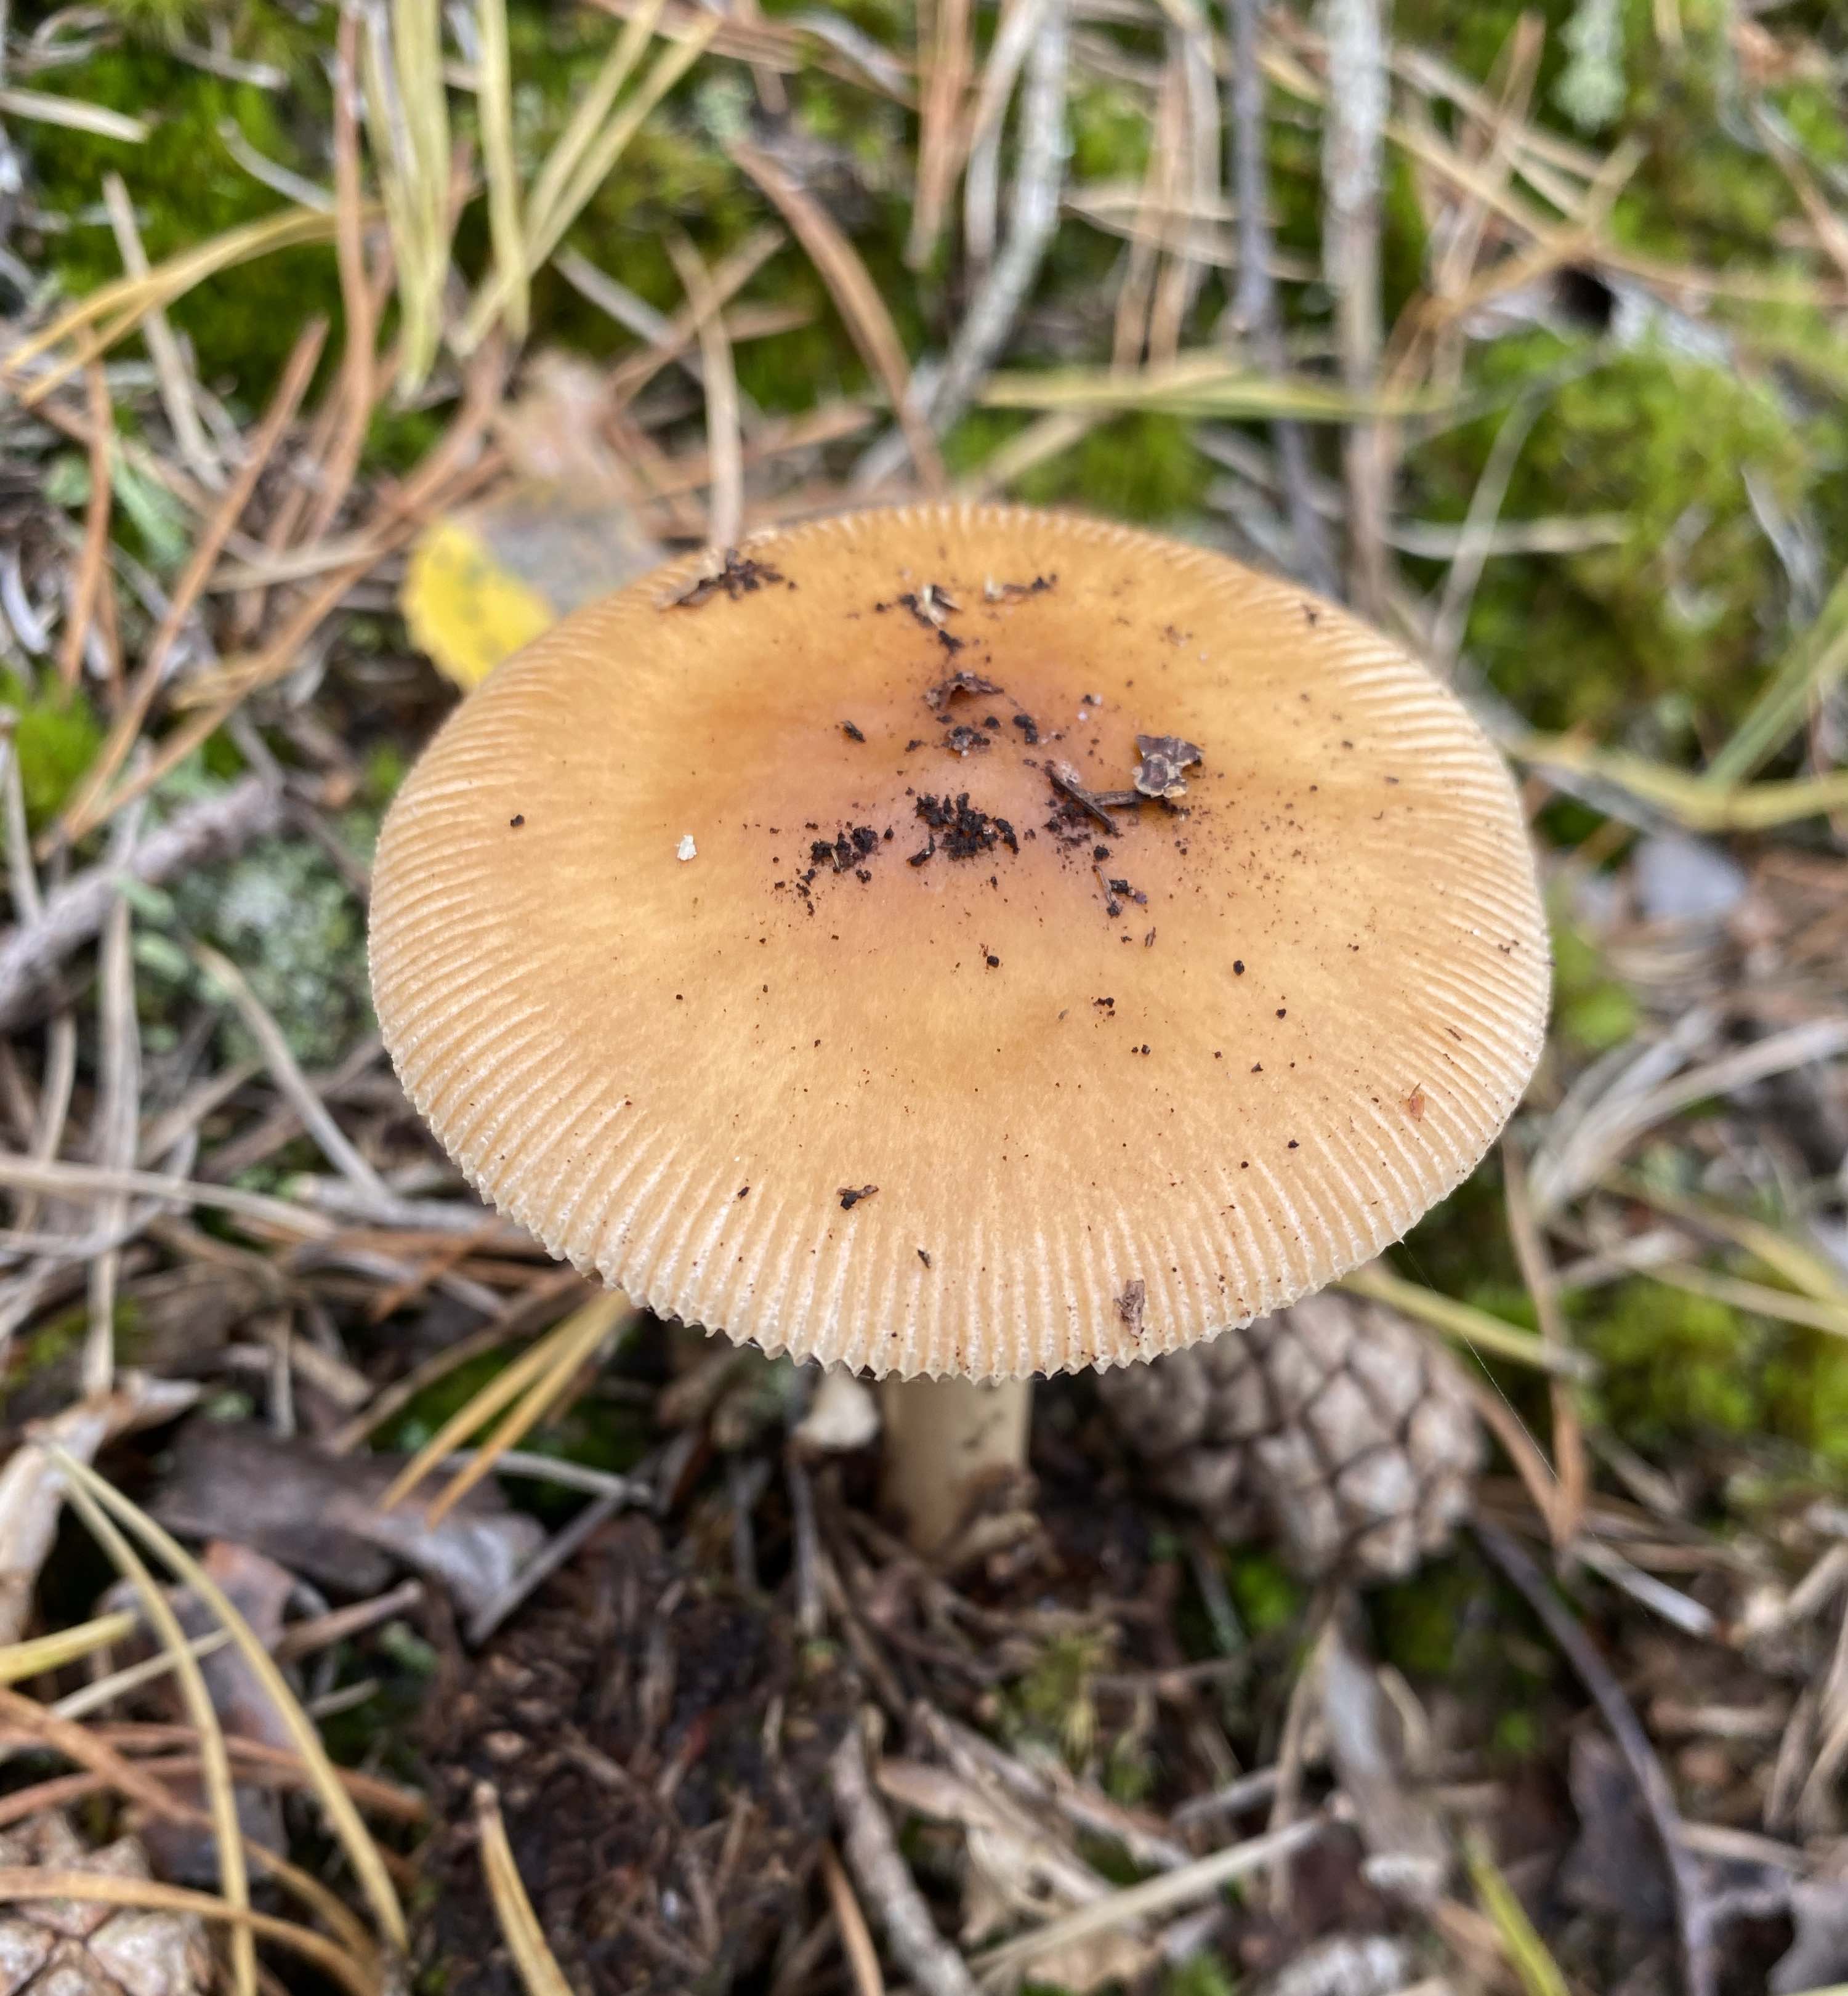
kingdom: Fungi
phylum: Basidiomycota
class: Agaricomycetes
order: Agaricales
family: Amanitaceae
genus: Amanita
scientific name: Amanita fulva
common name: brun kam-fluesvamp
